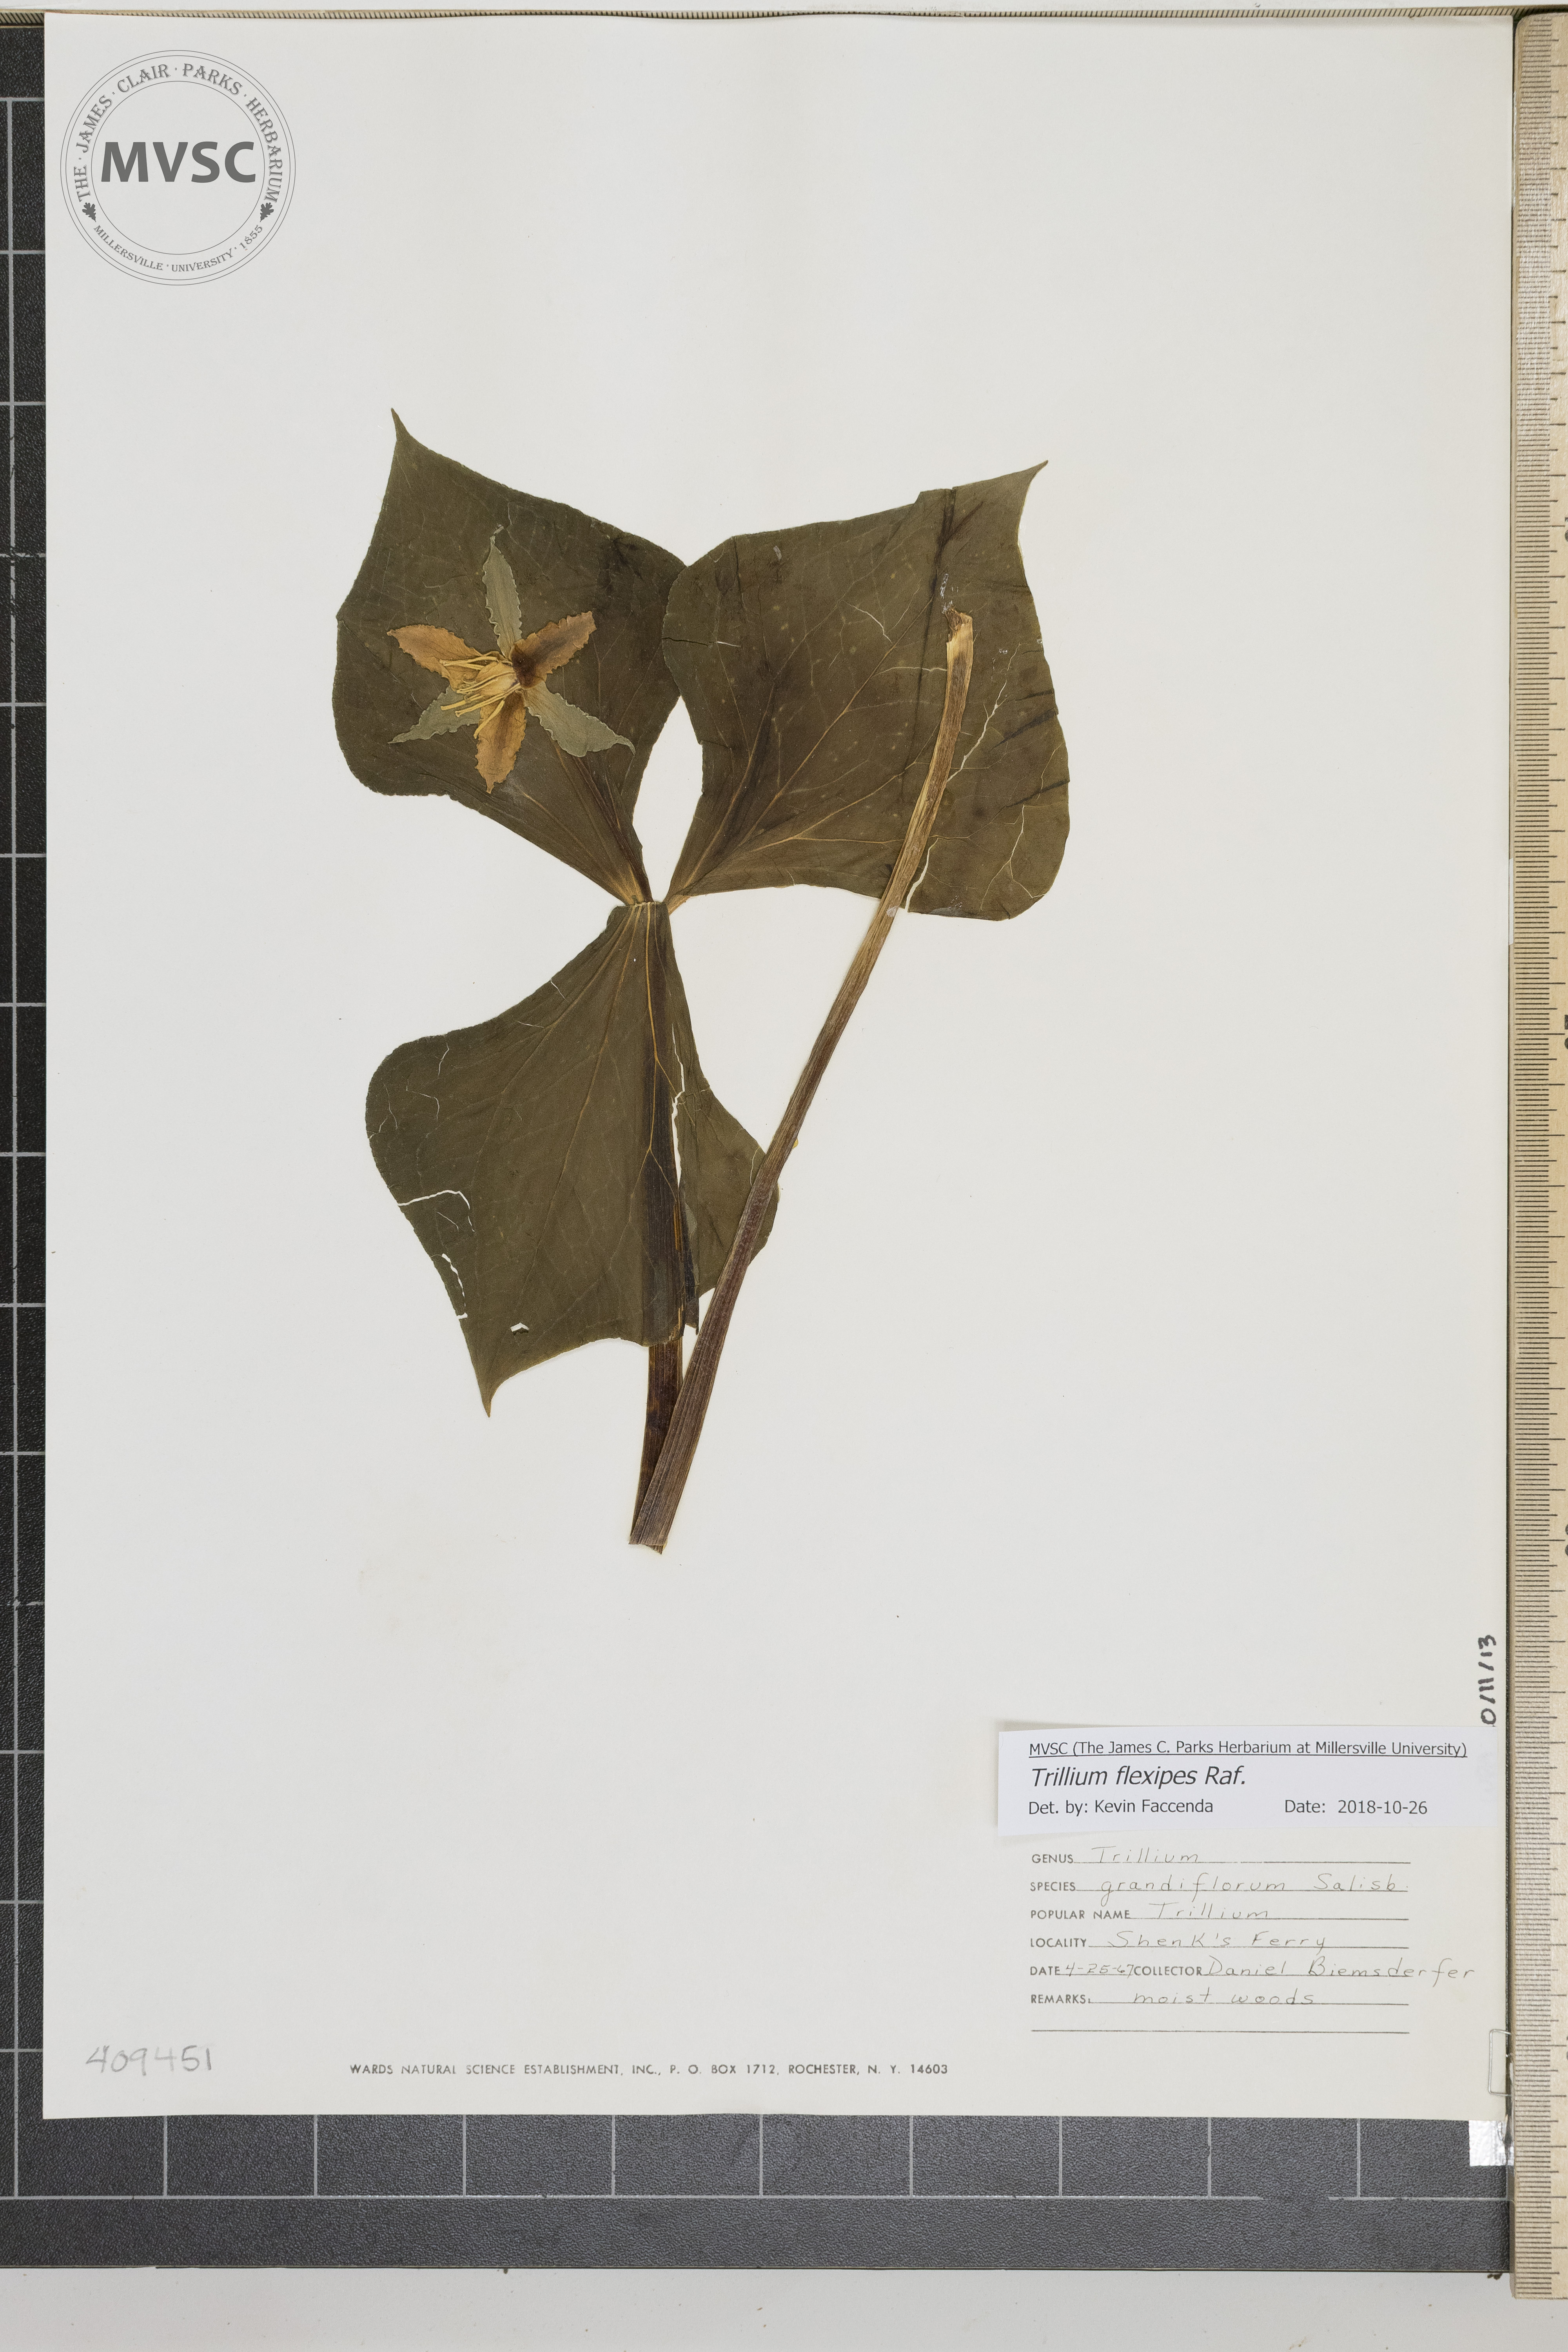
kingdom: Plantae
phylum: Tracheophyta
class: Liliopsida
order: Liliales
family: Melanthiaceae
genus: Trillium
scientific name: Trillium flexipes
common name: Drooping trillium
